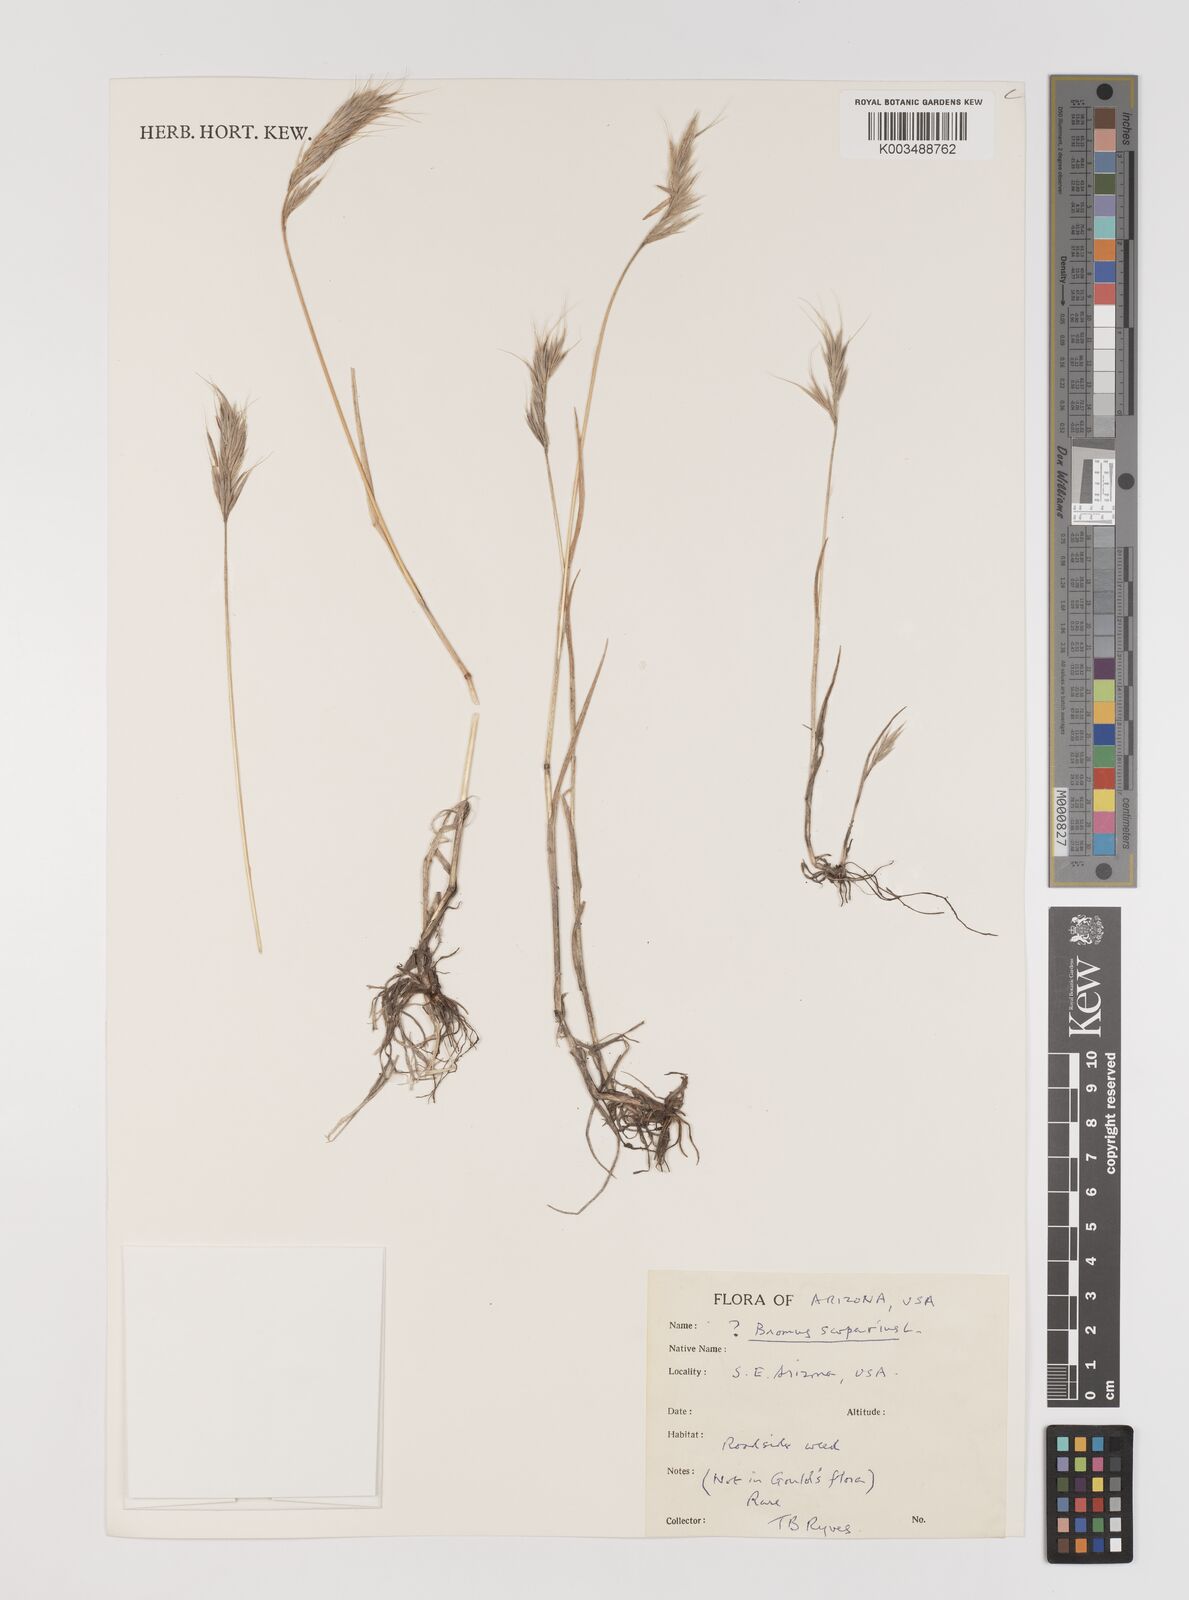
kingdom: Plantae
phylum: Tracheophyta
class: Liliopsida
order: Poales
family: Poaceae
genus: Bromus
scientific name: Bromus
